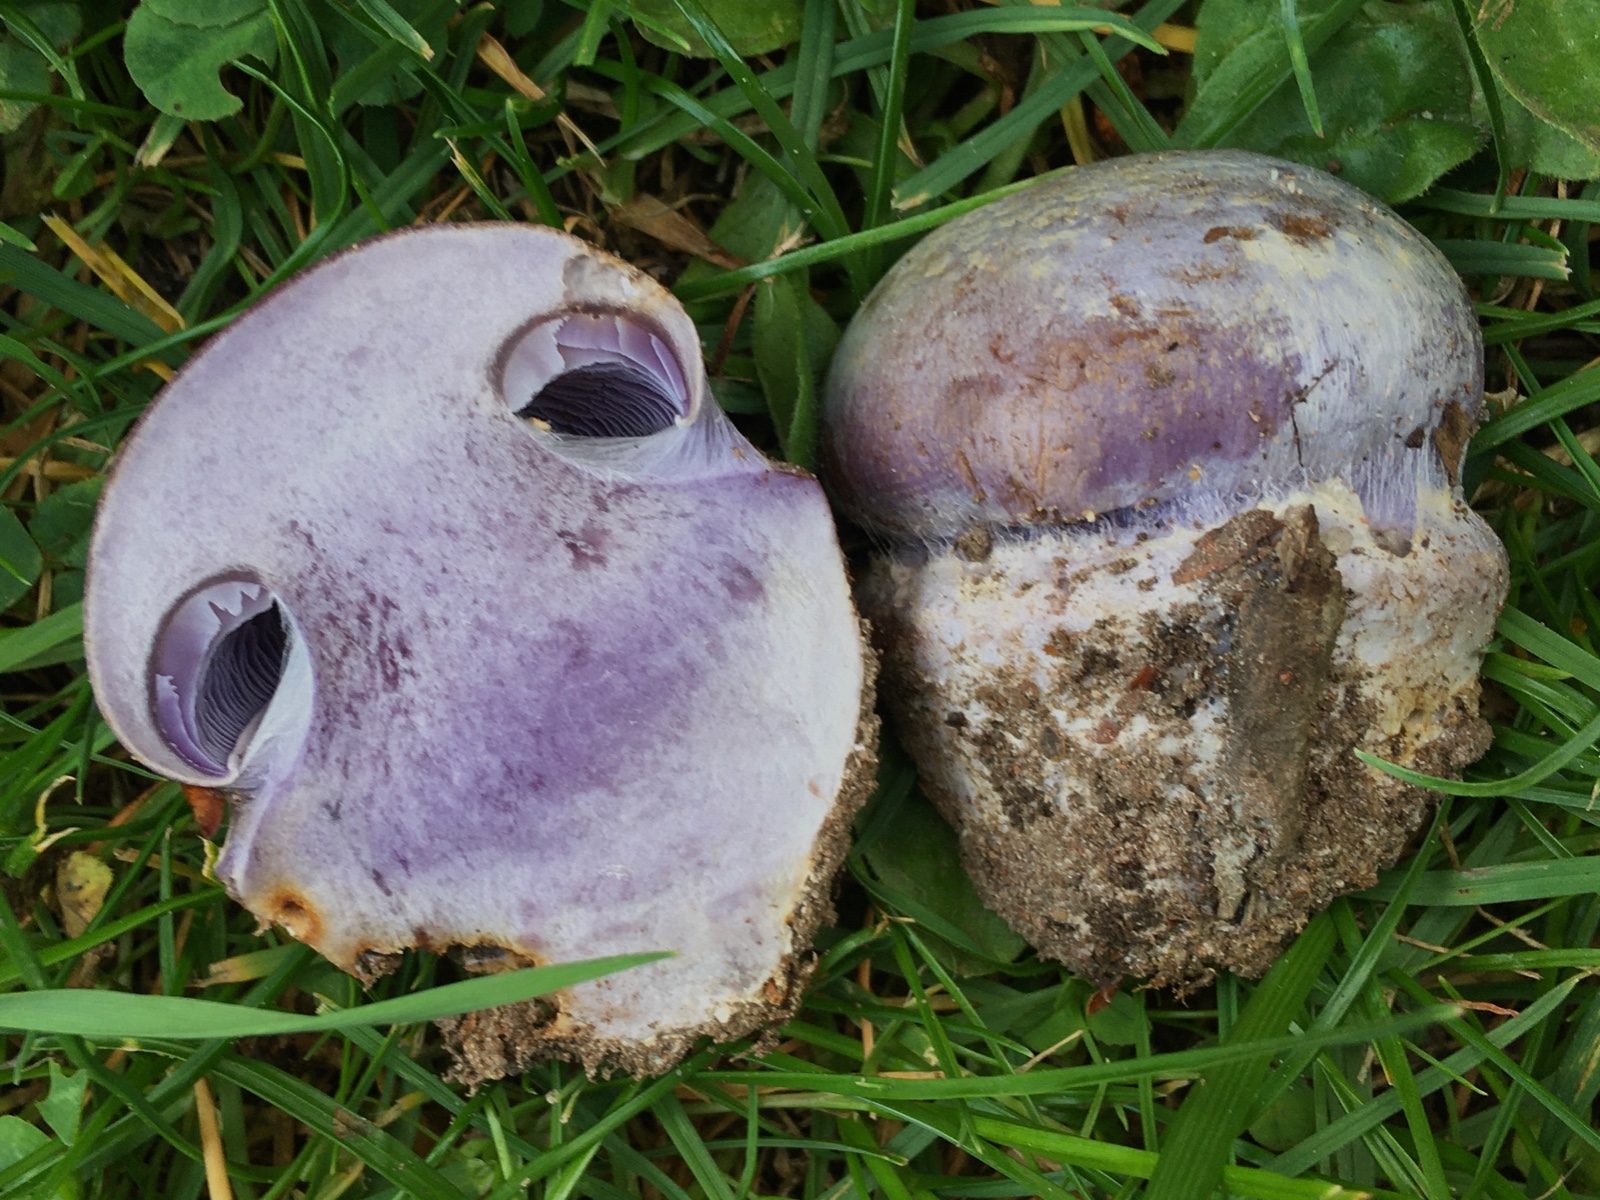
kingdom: Fungi
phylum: Basidiomycota
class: Agaricomycetes
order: Agaricales
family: Cortinariaceae
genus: Cortinarius
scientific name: Cortinarius caerulescens
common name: blåkødet slørhat
